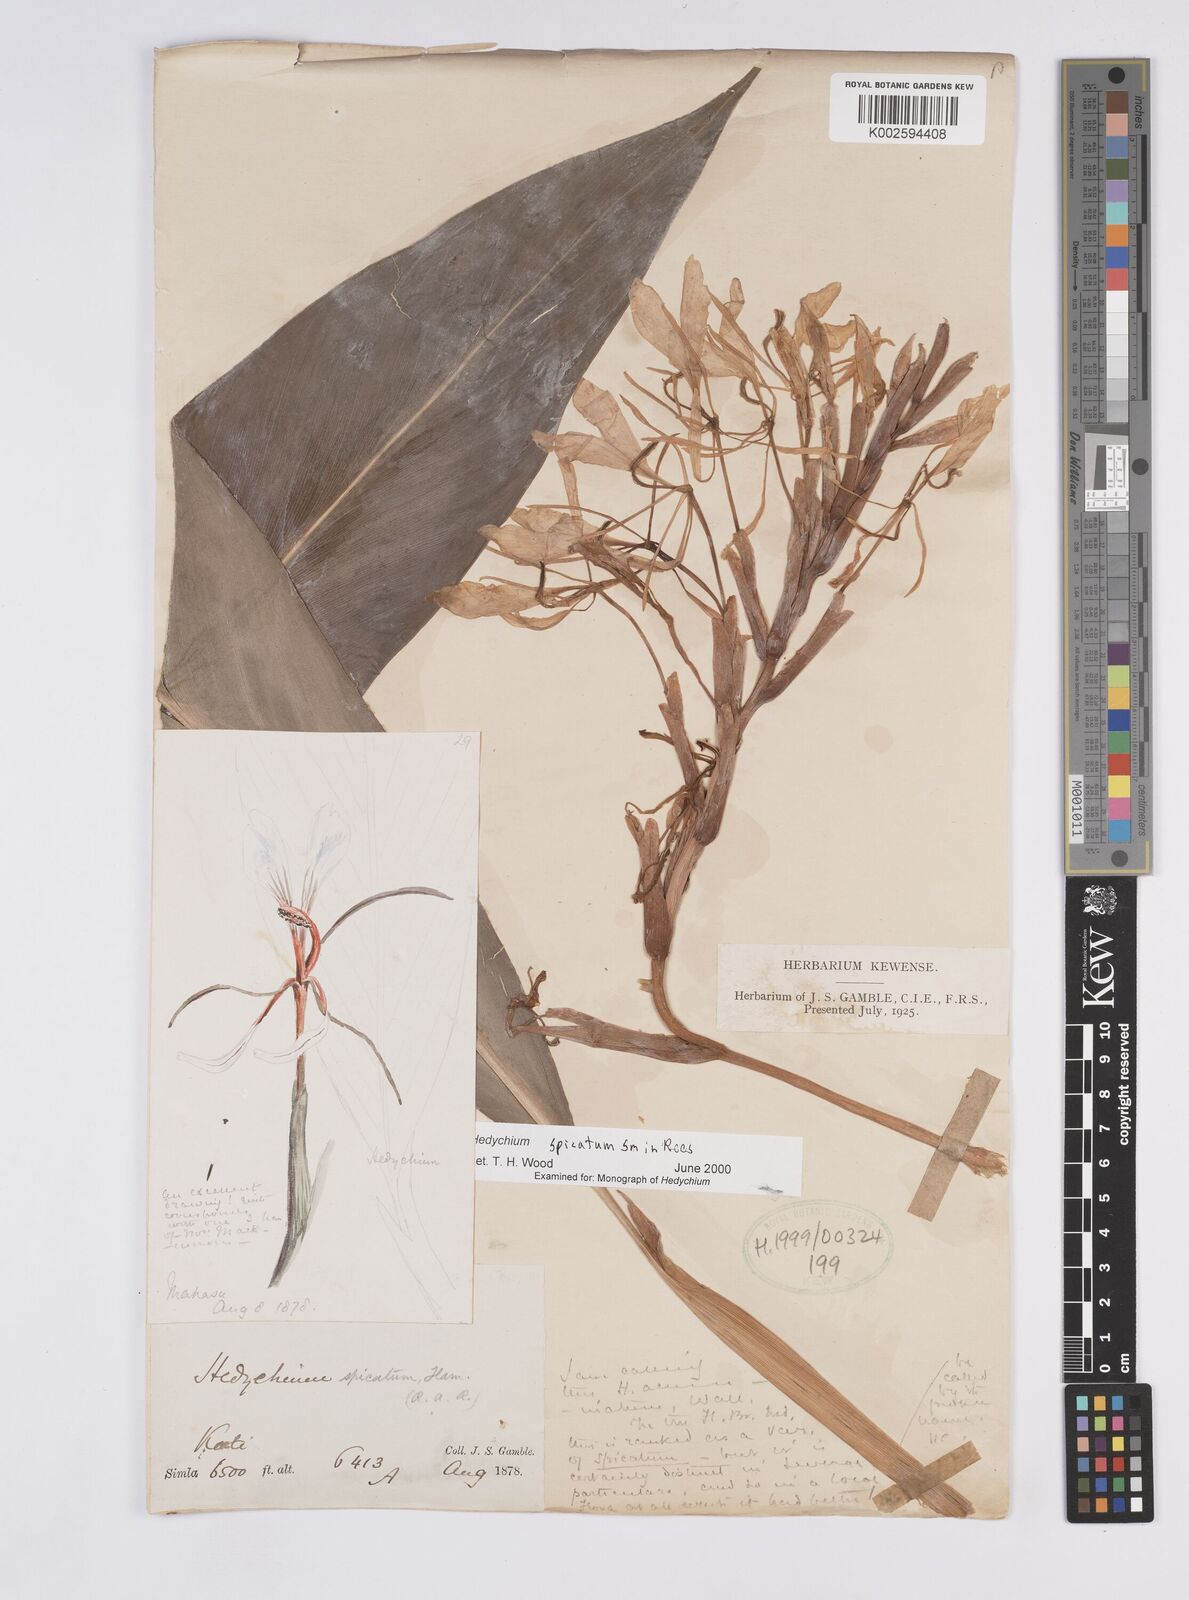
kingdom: Plantae
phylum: Tracheophyta
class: Liliopsida
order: Zingiberales
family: Zingiberaceae
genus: Hedychium
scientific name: Hedychium spicatum
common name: Spiked ginger-lily
